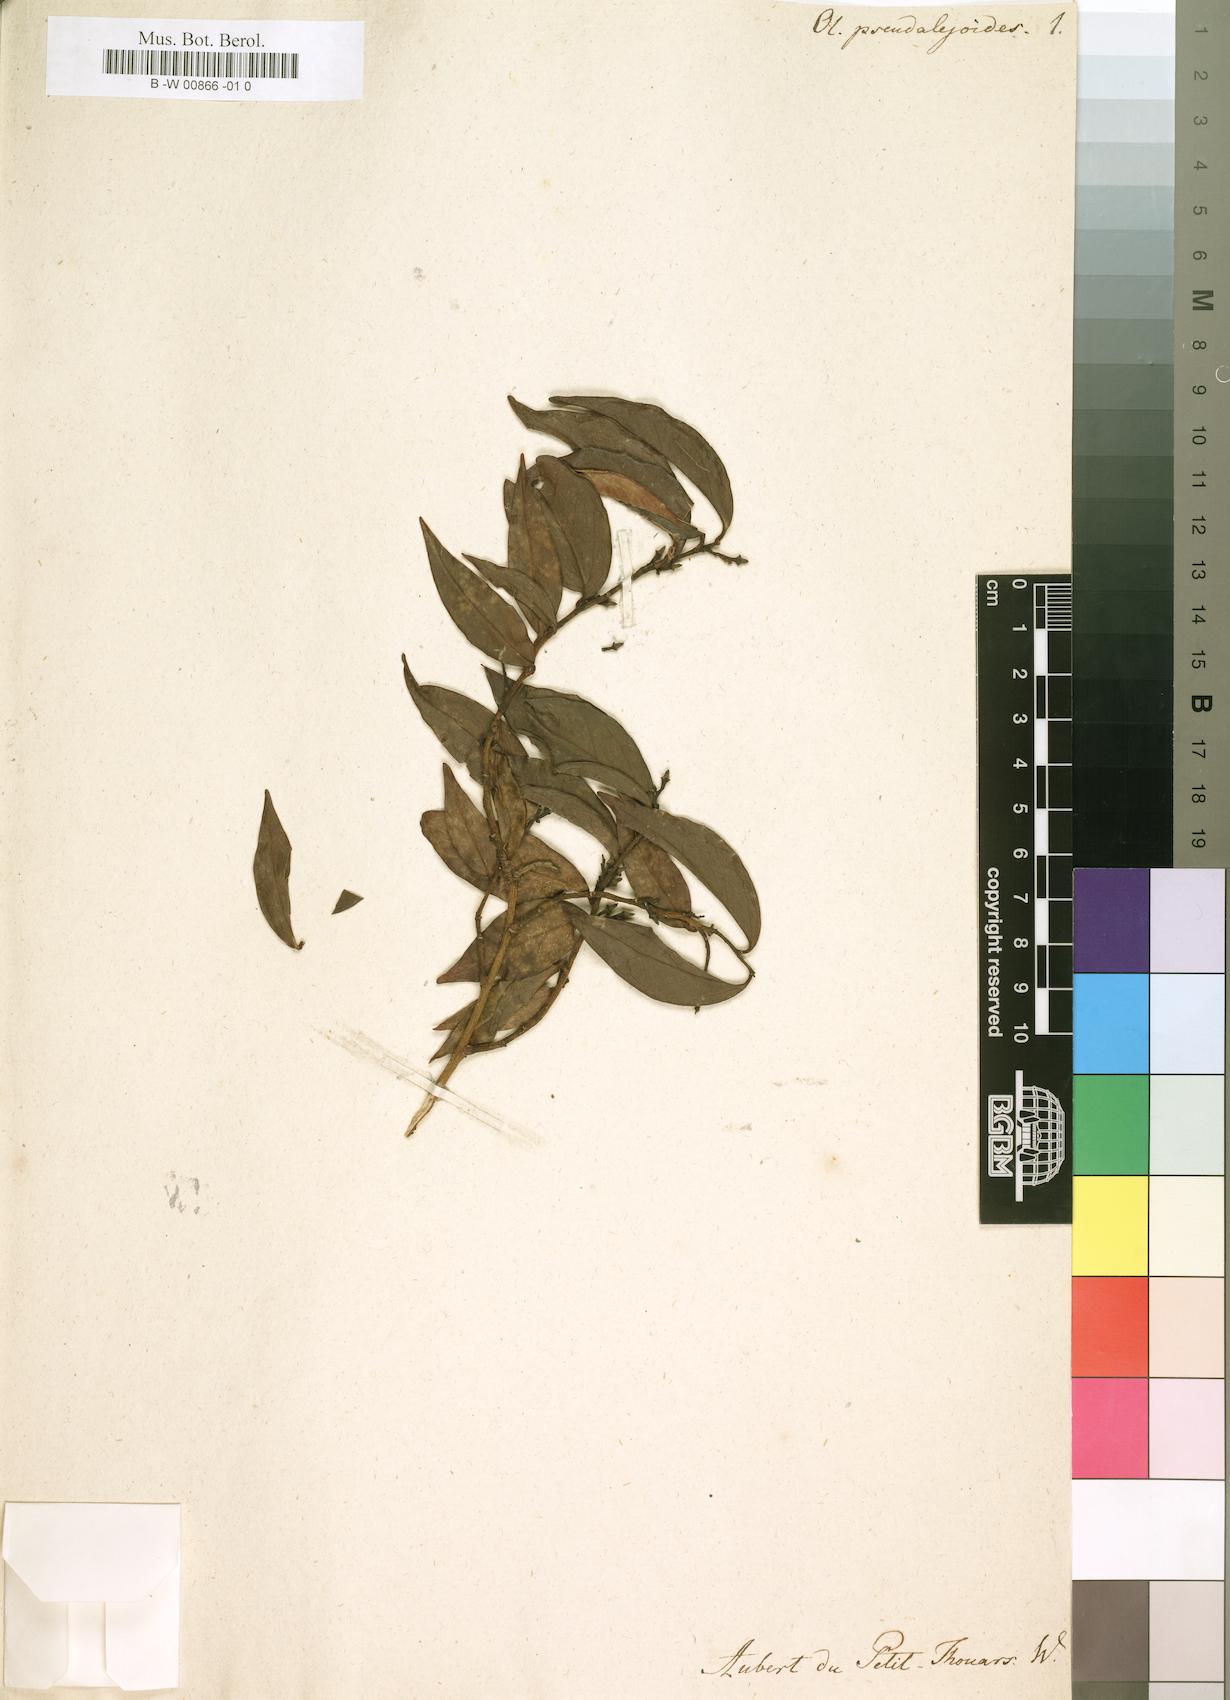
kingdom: Plantae
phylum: Tracheophyta
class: Magnoliopsida
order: Santalales
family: Olacaceae
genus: Olax
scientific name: Olax pseudoleioides
